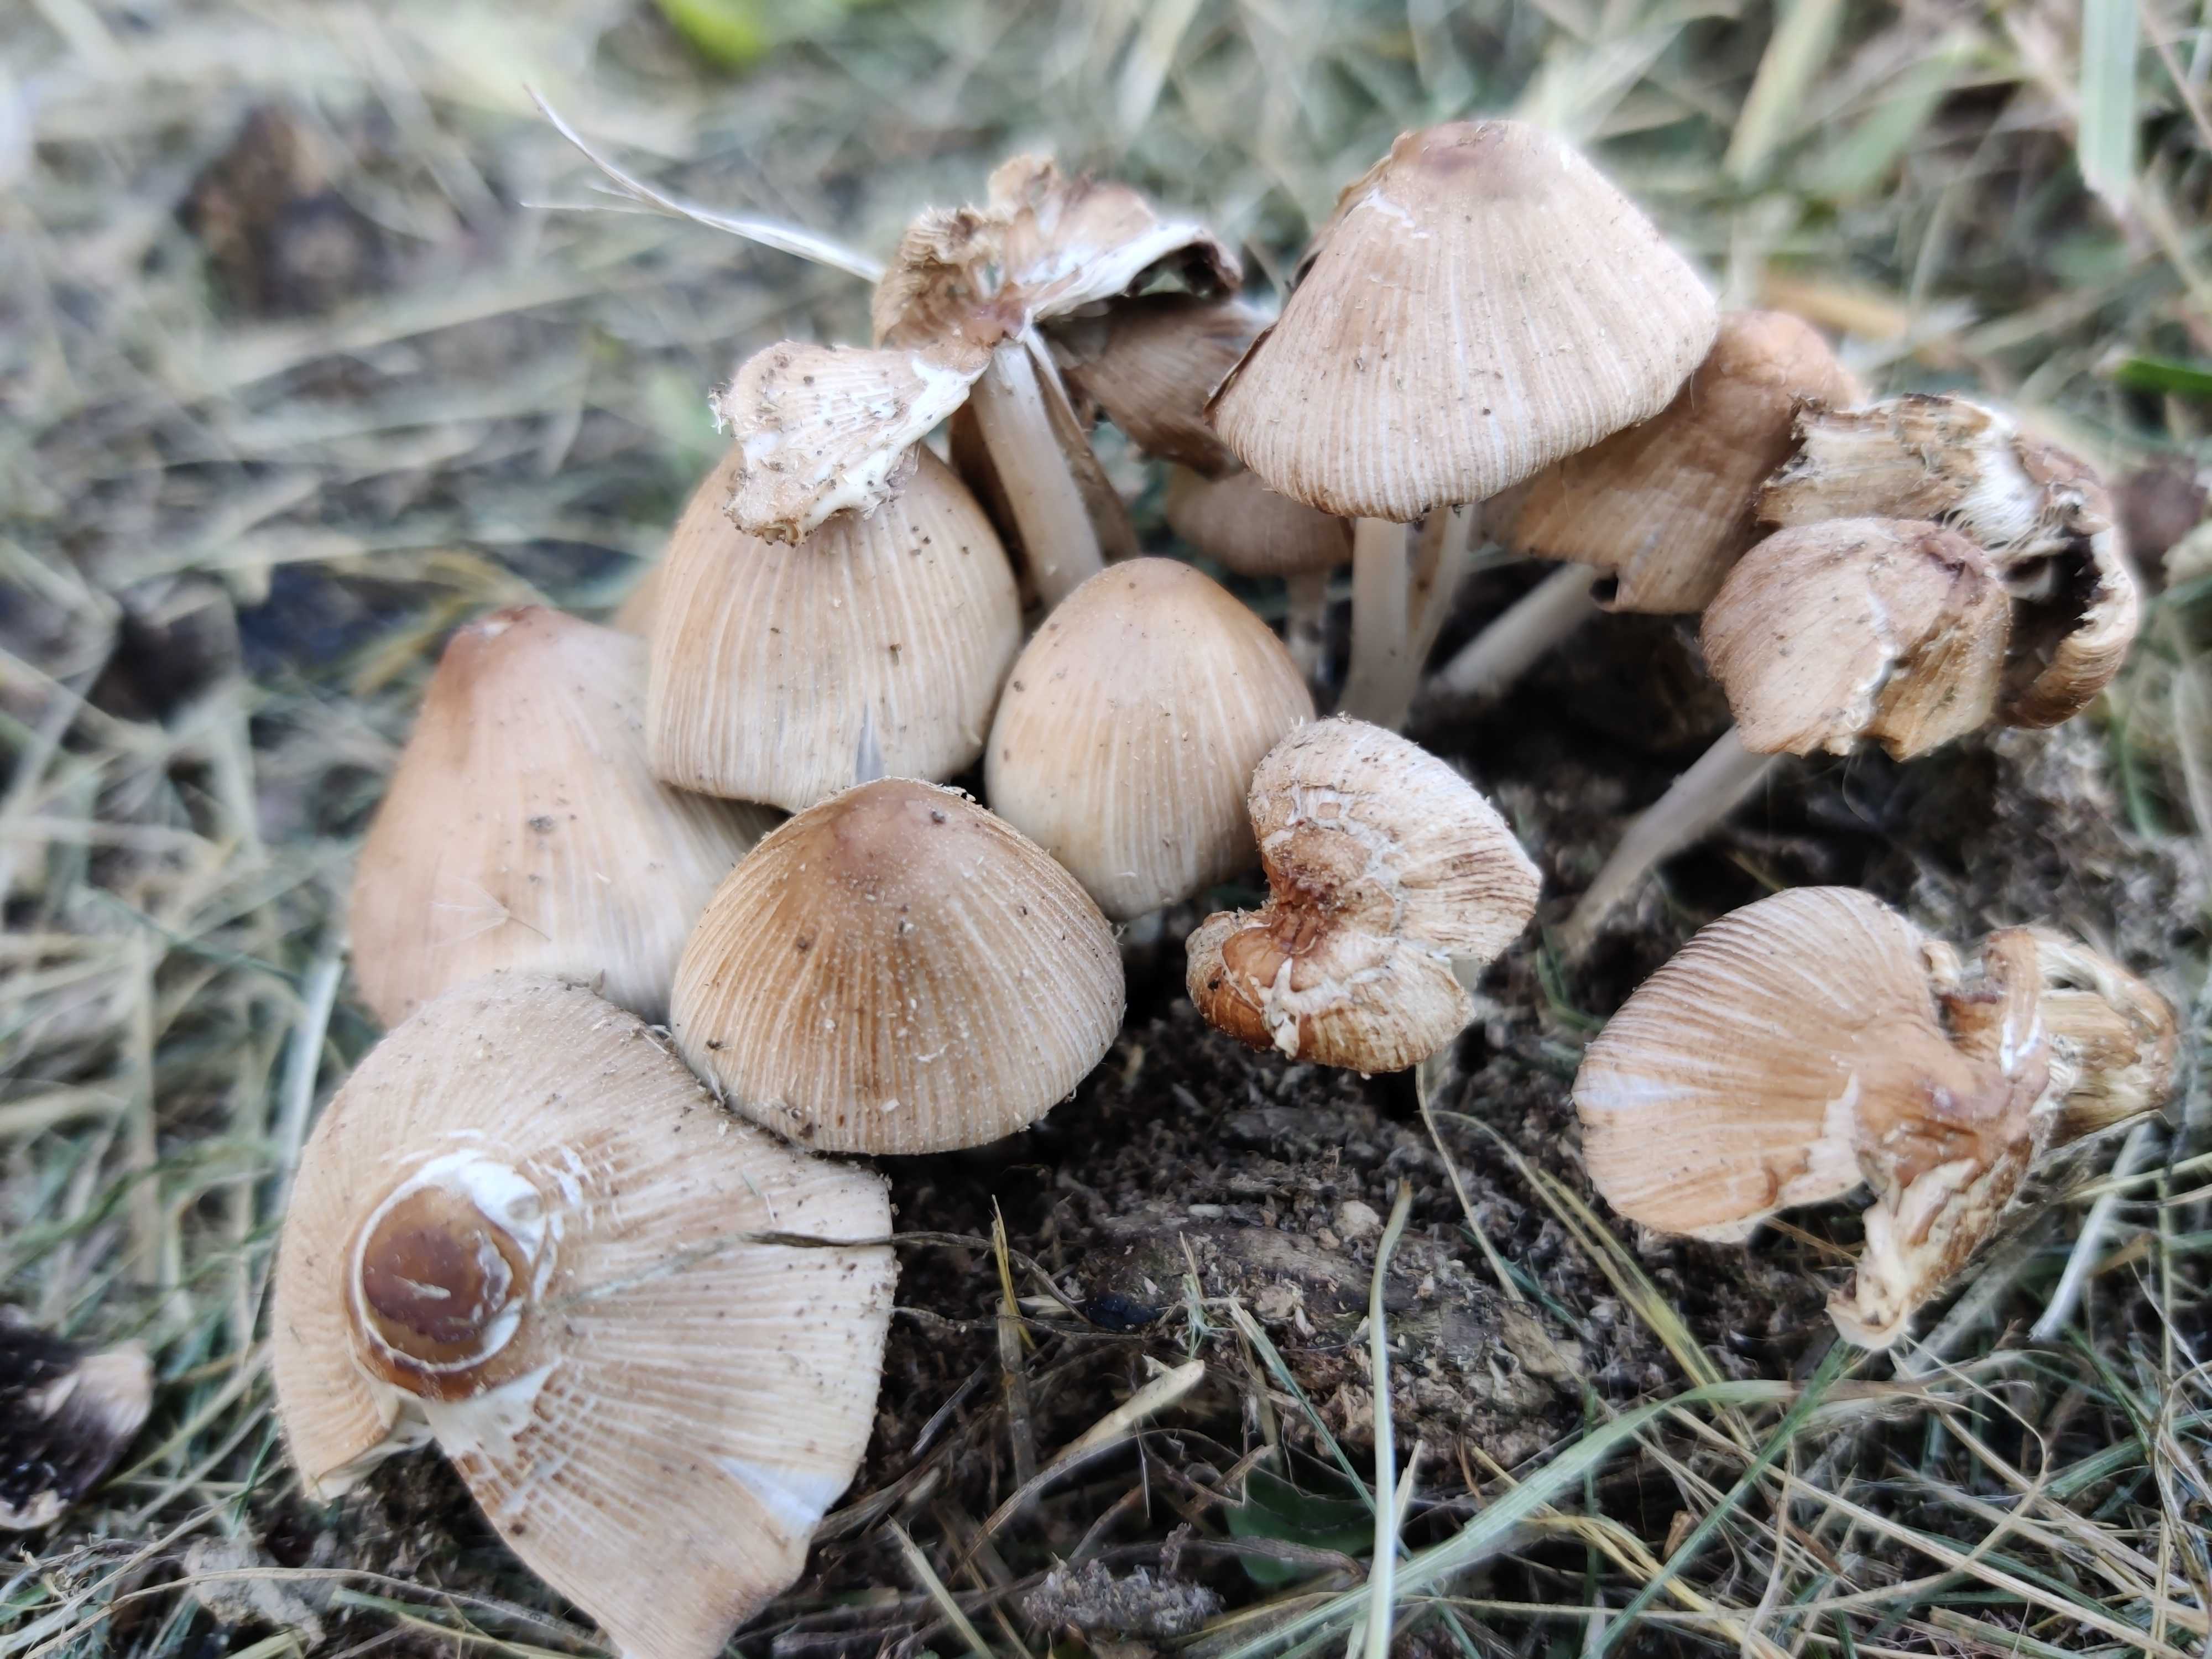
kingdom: Fungi
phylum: Basidiomycota
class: Agaricomycetes
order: Agaricales
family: Psathyrellaceae
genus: Coprinellus
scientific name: Coprinellus
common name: blækhat
